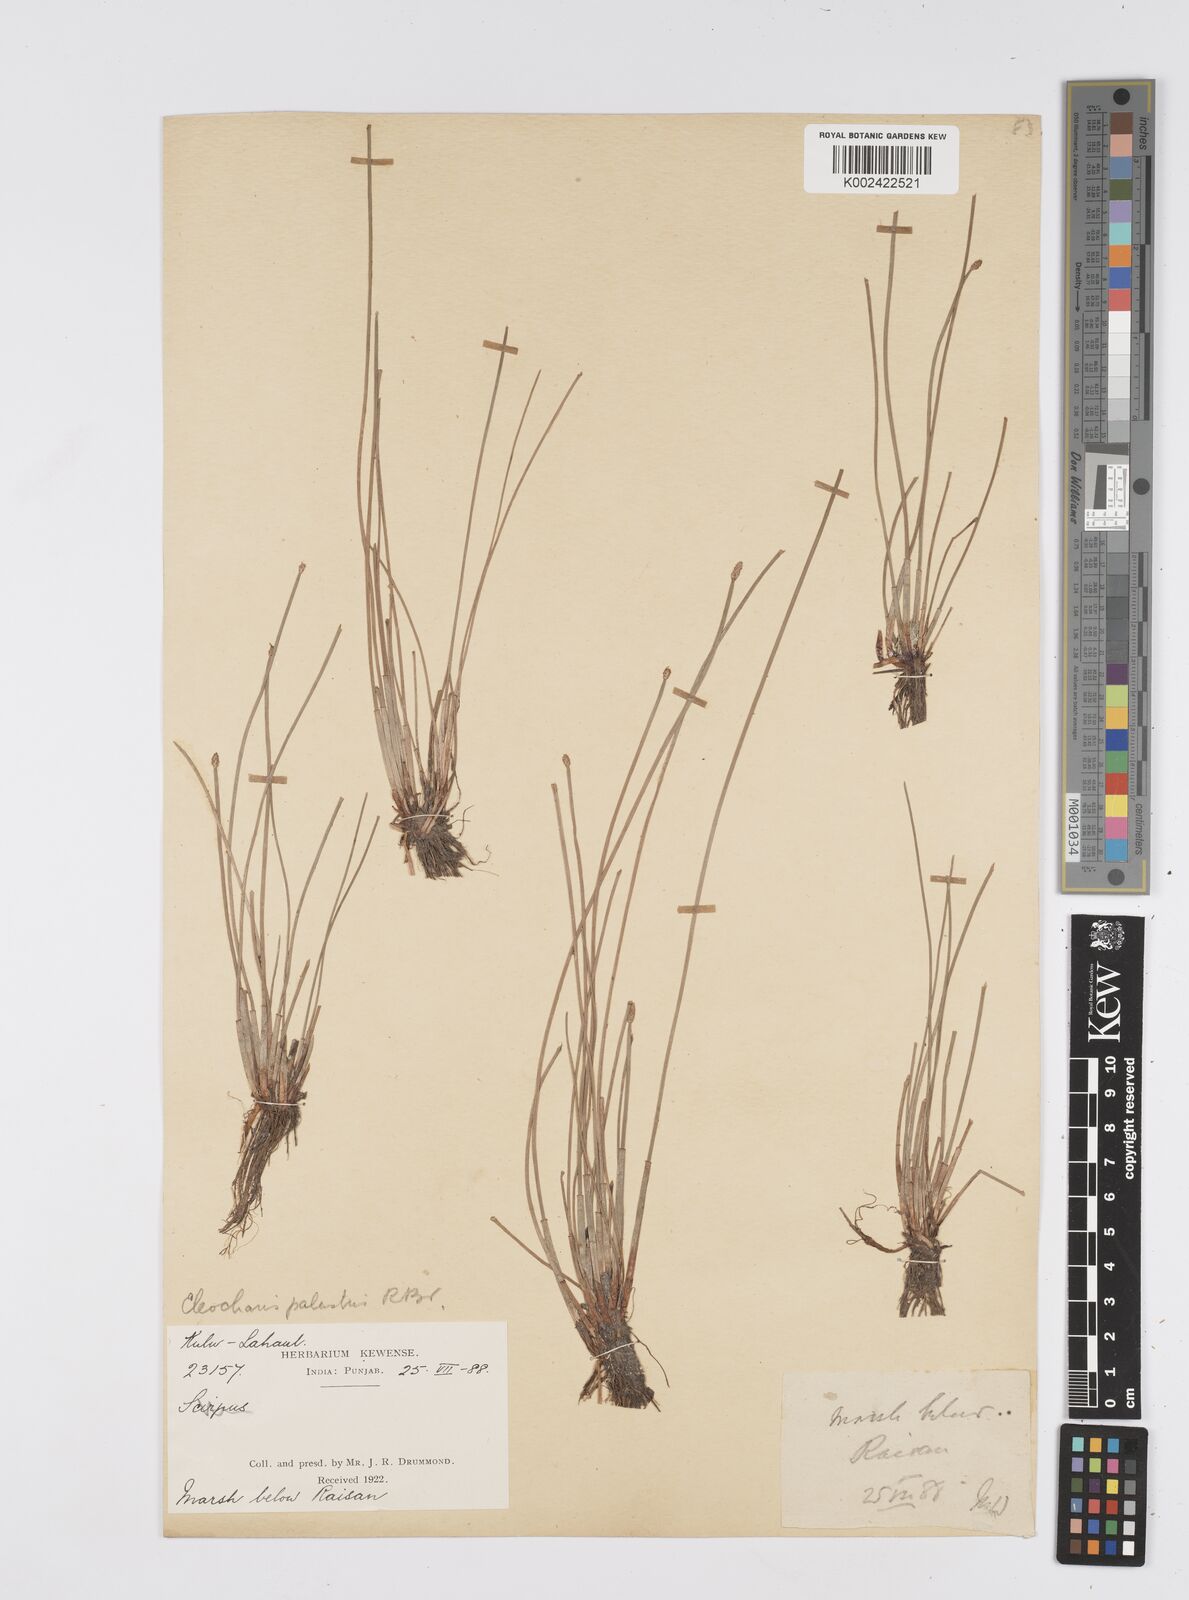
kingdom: Plantae
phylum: Tracheophyta
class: Liliopsida
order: Poales
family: Cyperaceae
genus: Eleocharis
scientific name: Eleocharis palustris
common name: Common spike-rush
